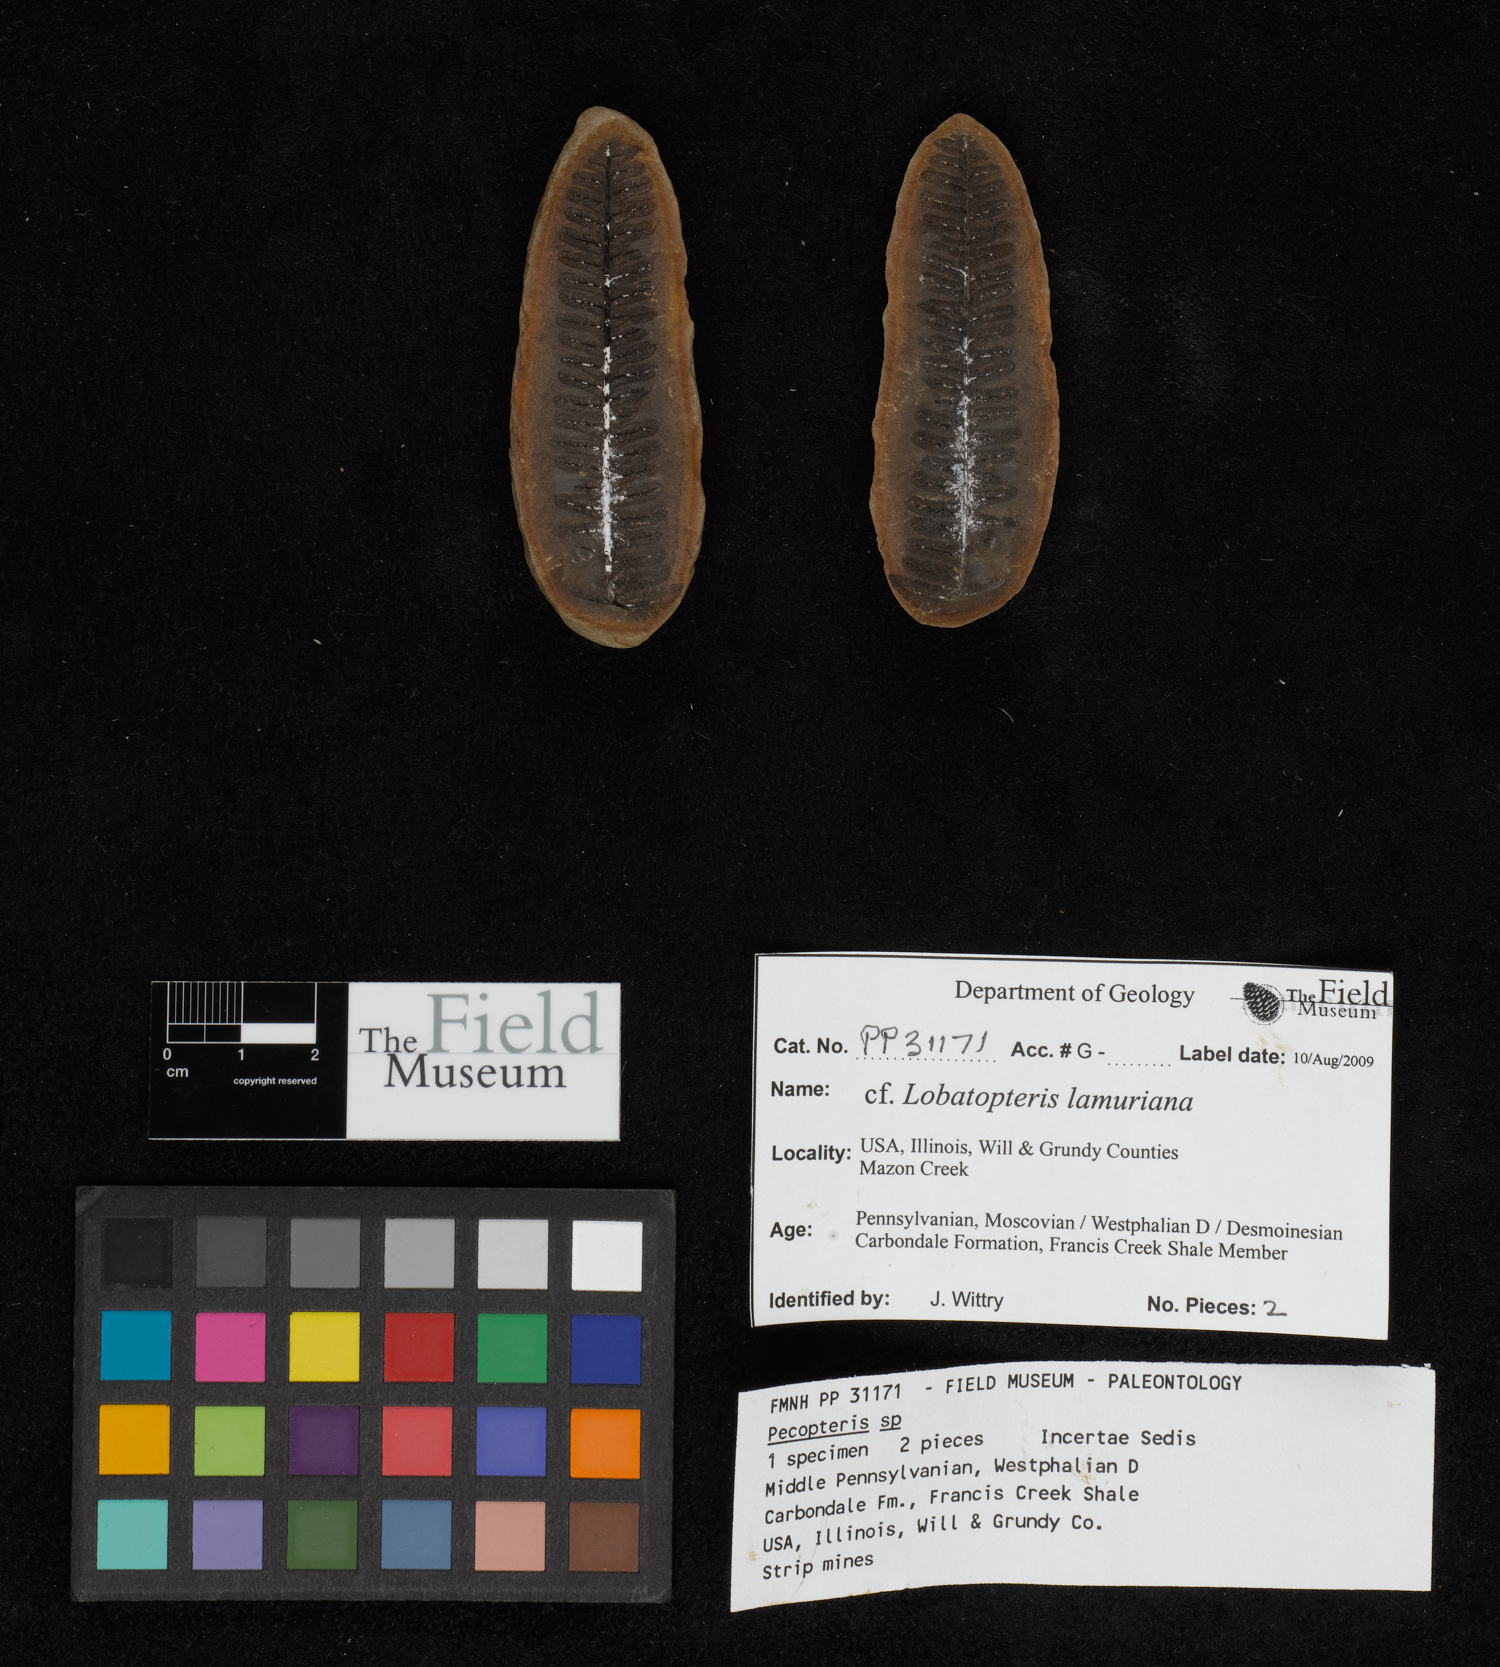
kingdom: Plantae
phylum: Tracheophyta
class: Polypodiopsida
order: Marattiales
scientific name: Marattiales
